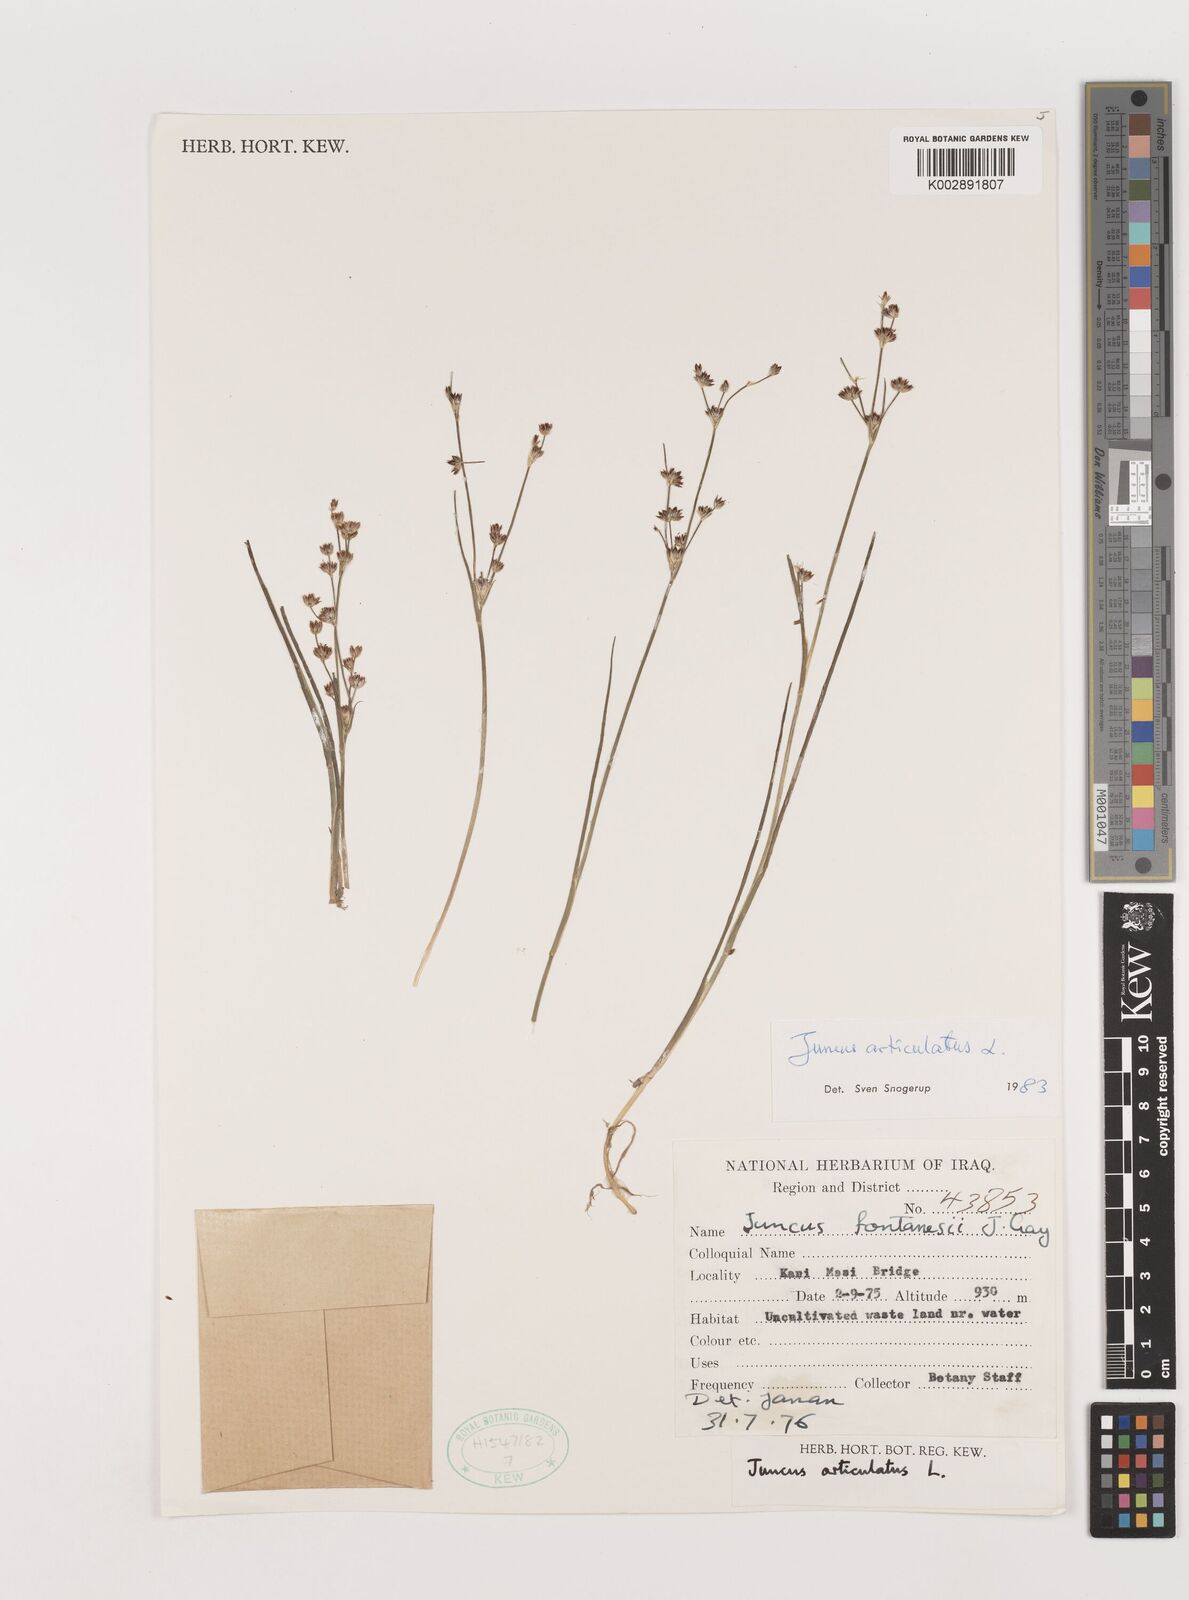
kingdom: Plantae
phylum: Tracheophyta
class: Liliopsida
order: Poales
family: Juncaceae
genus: Juncus
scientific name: Juncus articulatus
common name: Jointed rush
